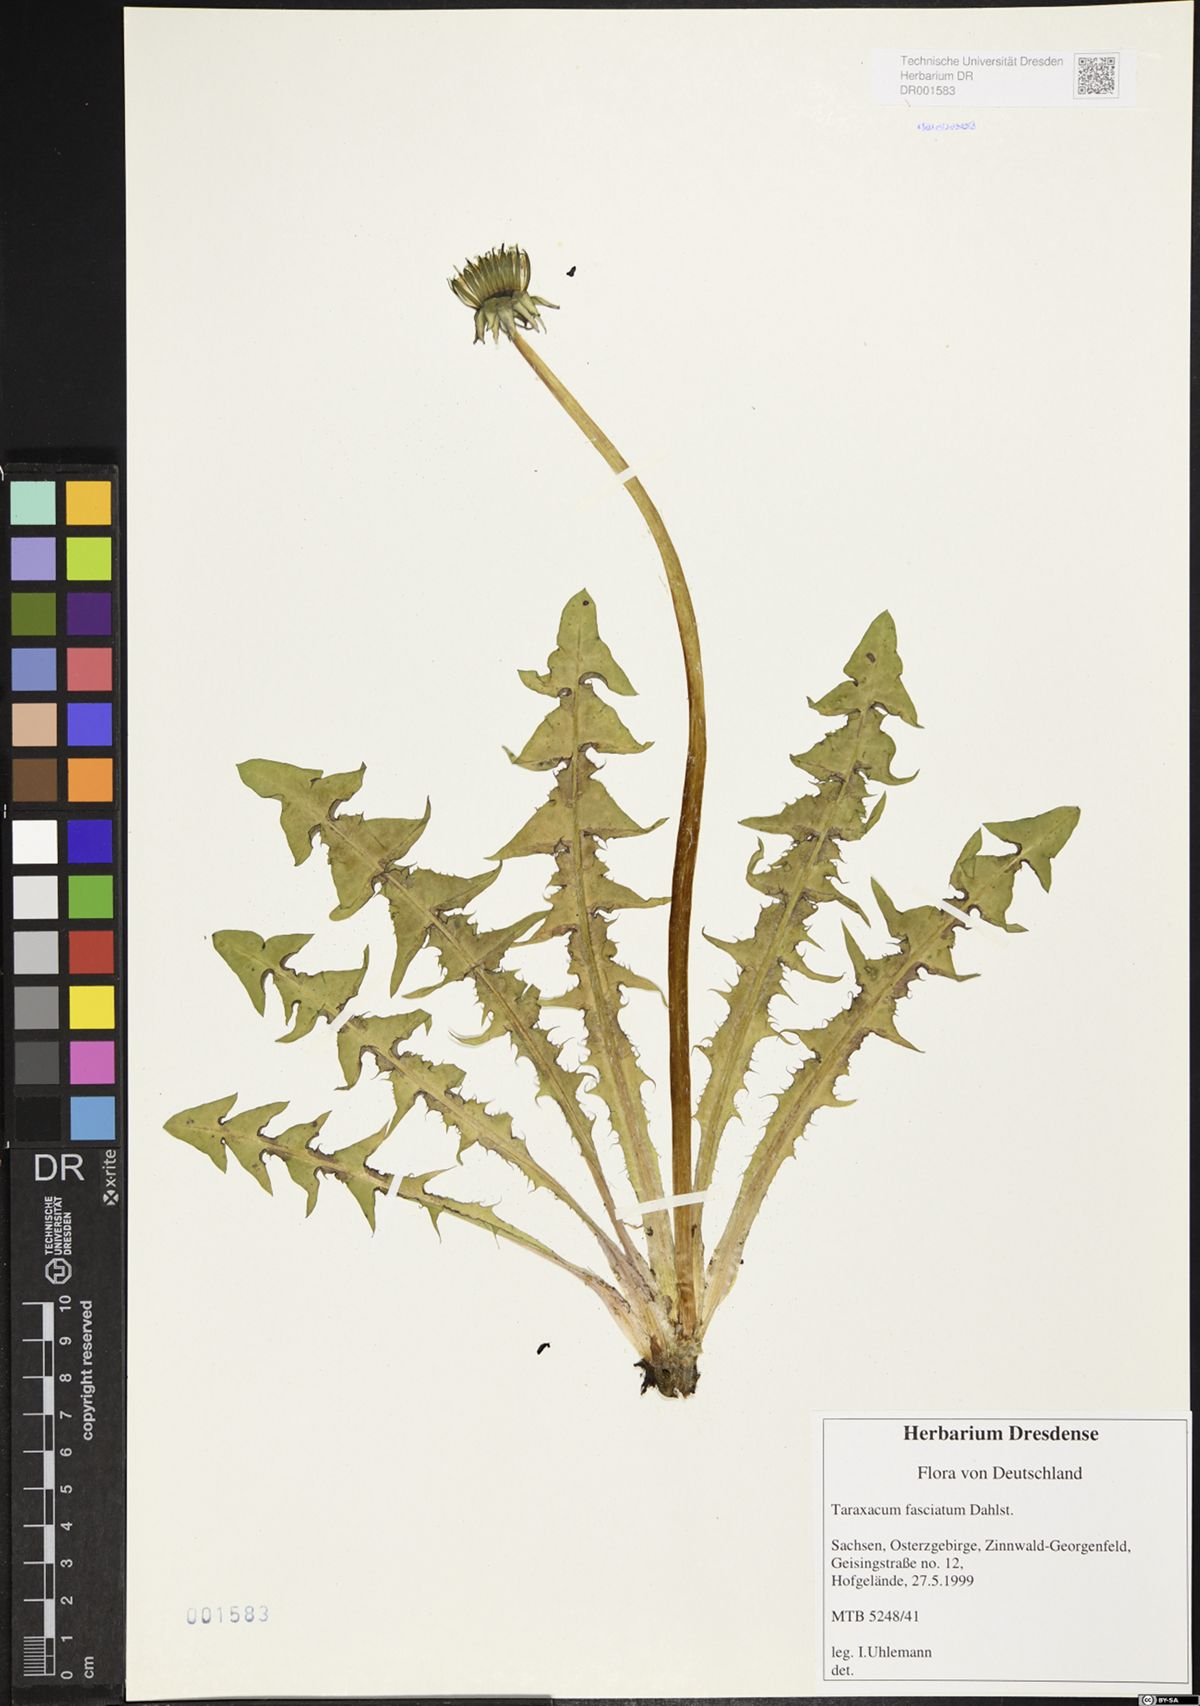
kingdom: Plantae
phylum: Tracheophyta
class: Magnoliopsida
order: Asterales
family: Asteraceae
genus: Taraxacum
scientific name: Taraxacum fasciatum
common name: Dense-bracted dandelion
